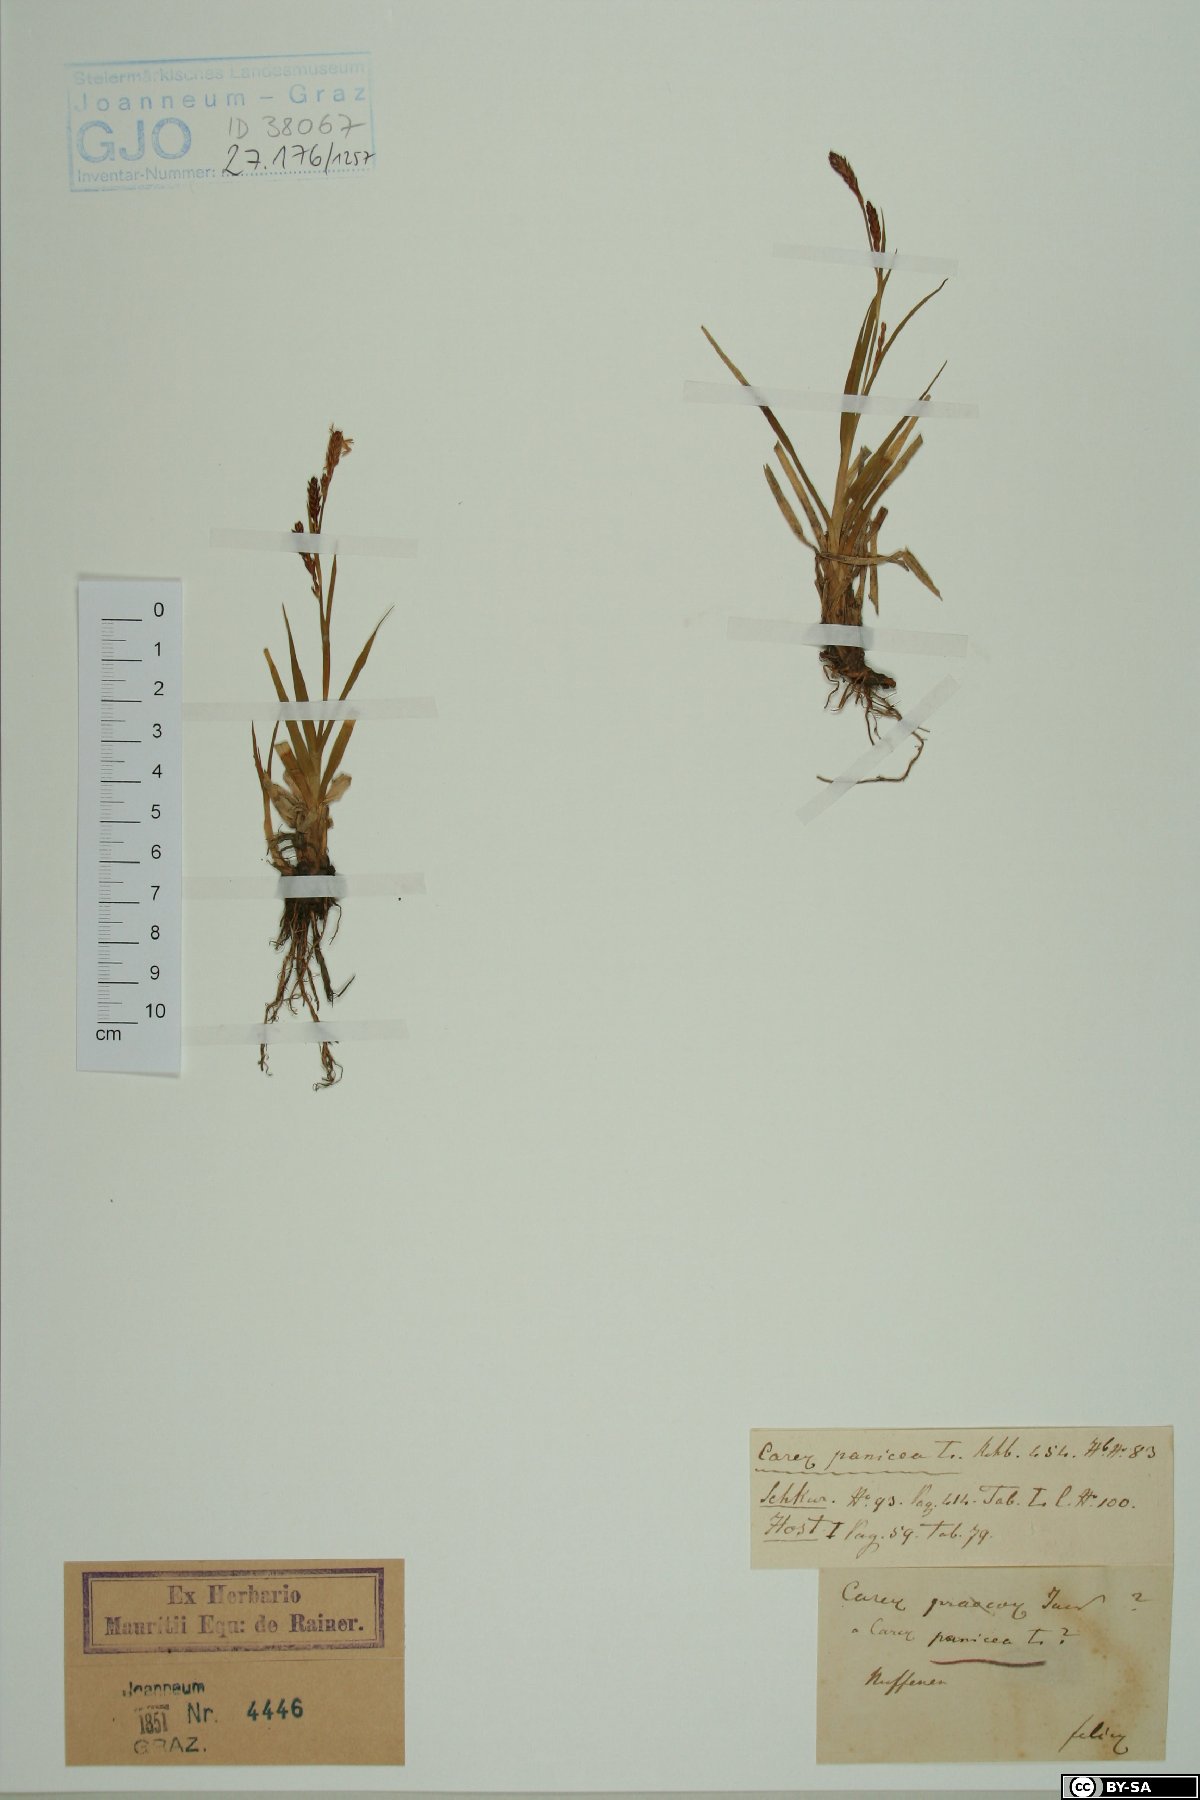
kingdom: Plantae
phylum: Tracheophyta
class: Liliopsida
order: Poales
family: Cyperaceae
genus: Carex
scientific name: Carex panicea
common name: Carnation sedge
